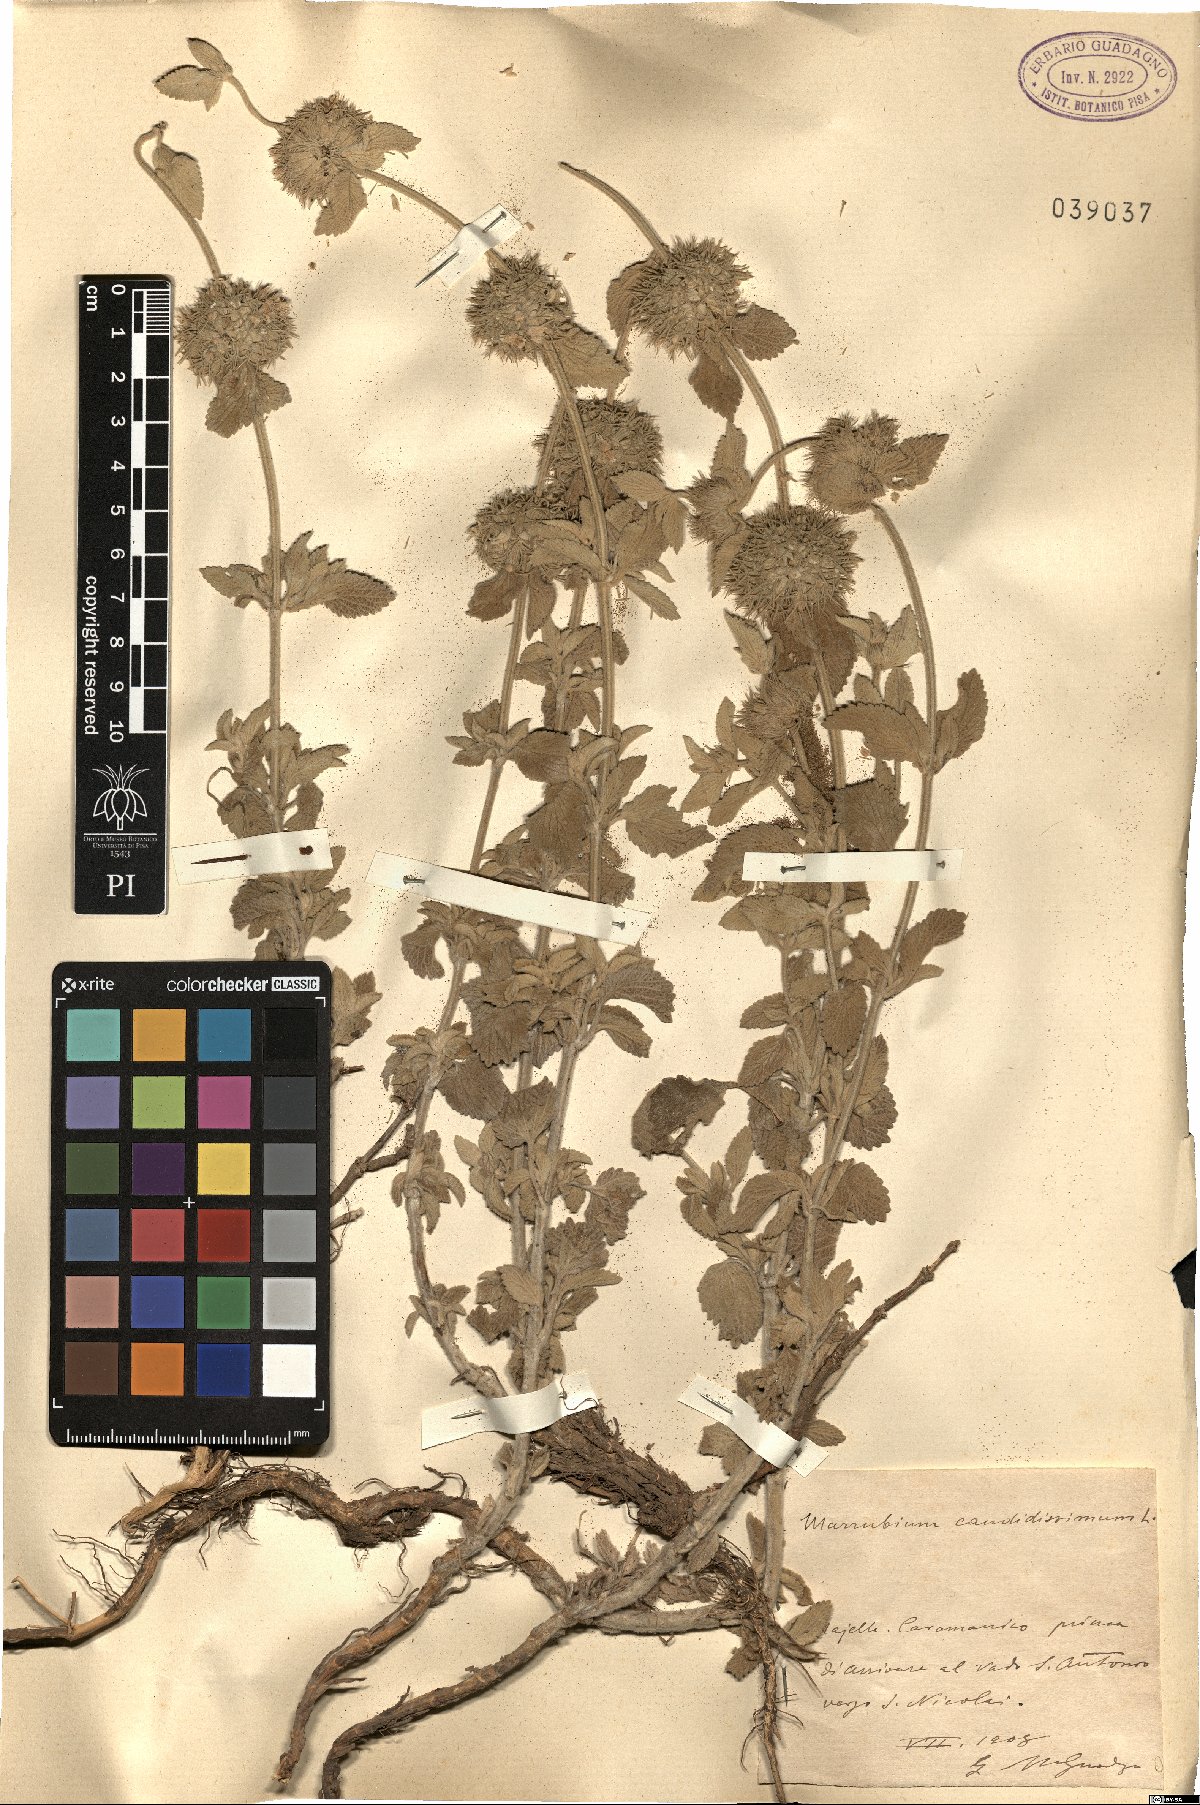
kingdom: Plantae
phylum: Tracheophyta
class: Magnoliopsida
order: Lamiales
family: Lamiaceae
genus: Marrubium
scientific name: Marrubium peregrinum
